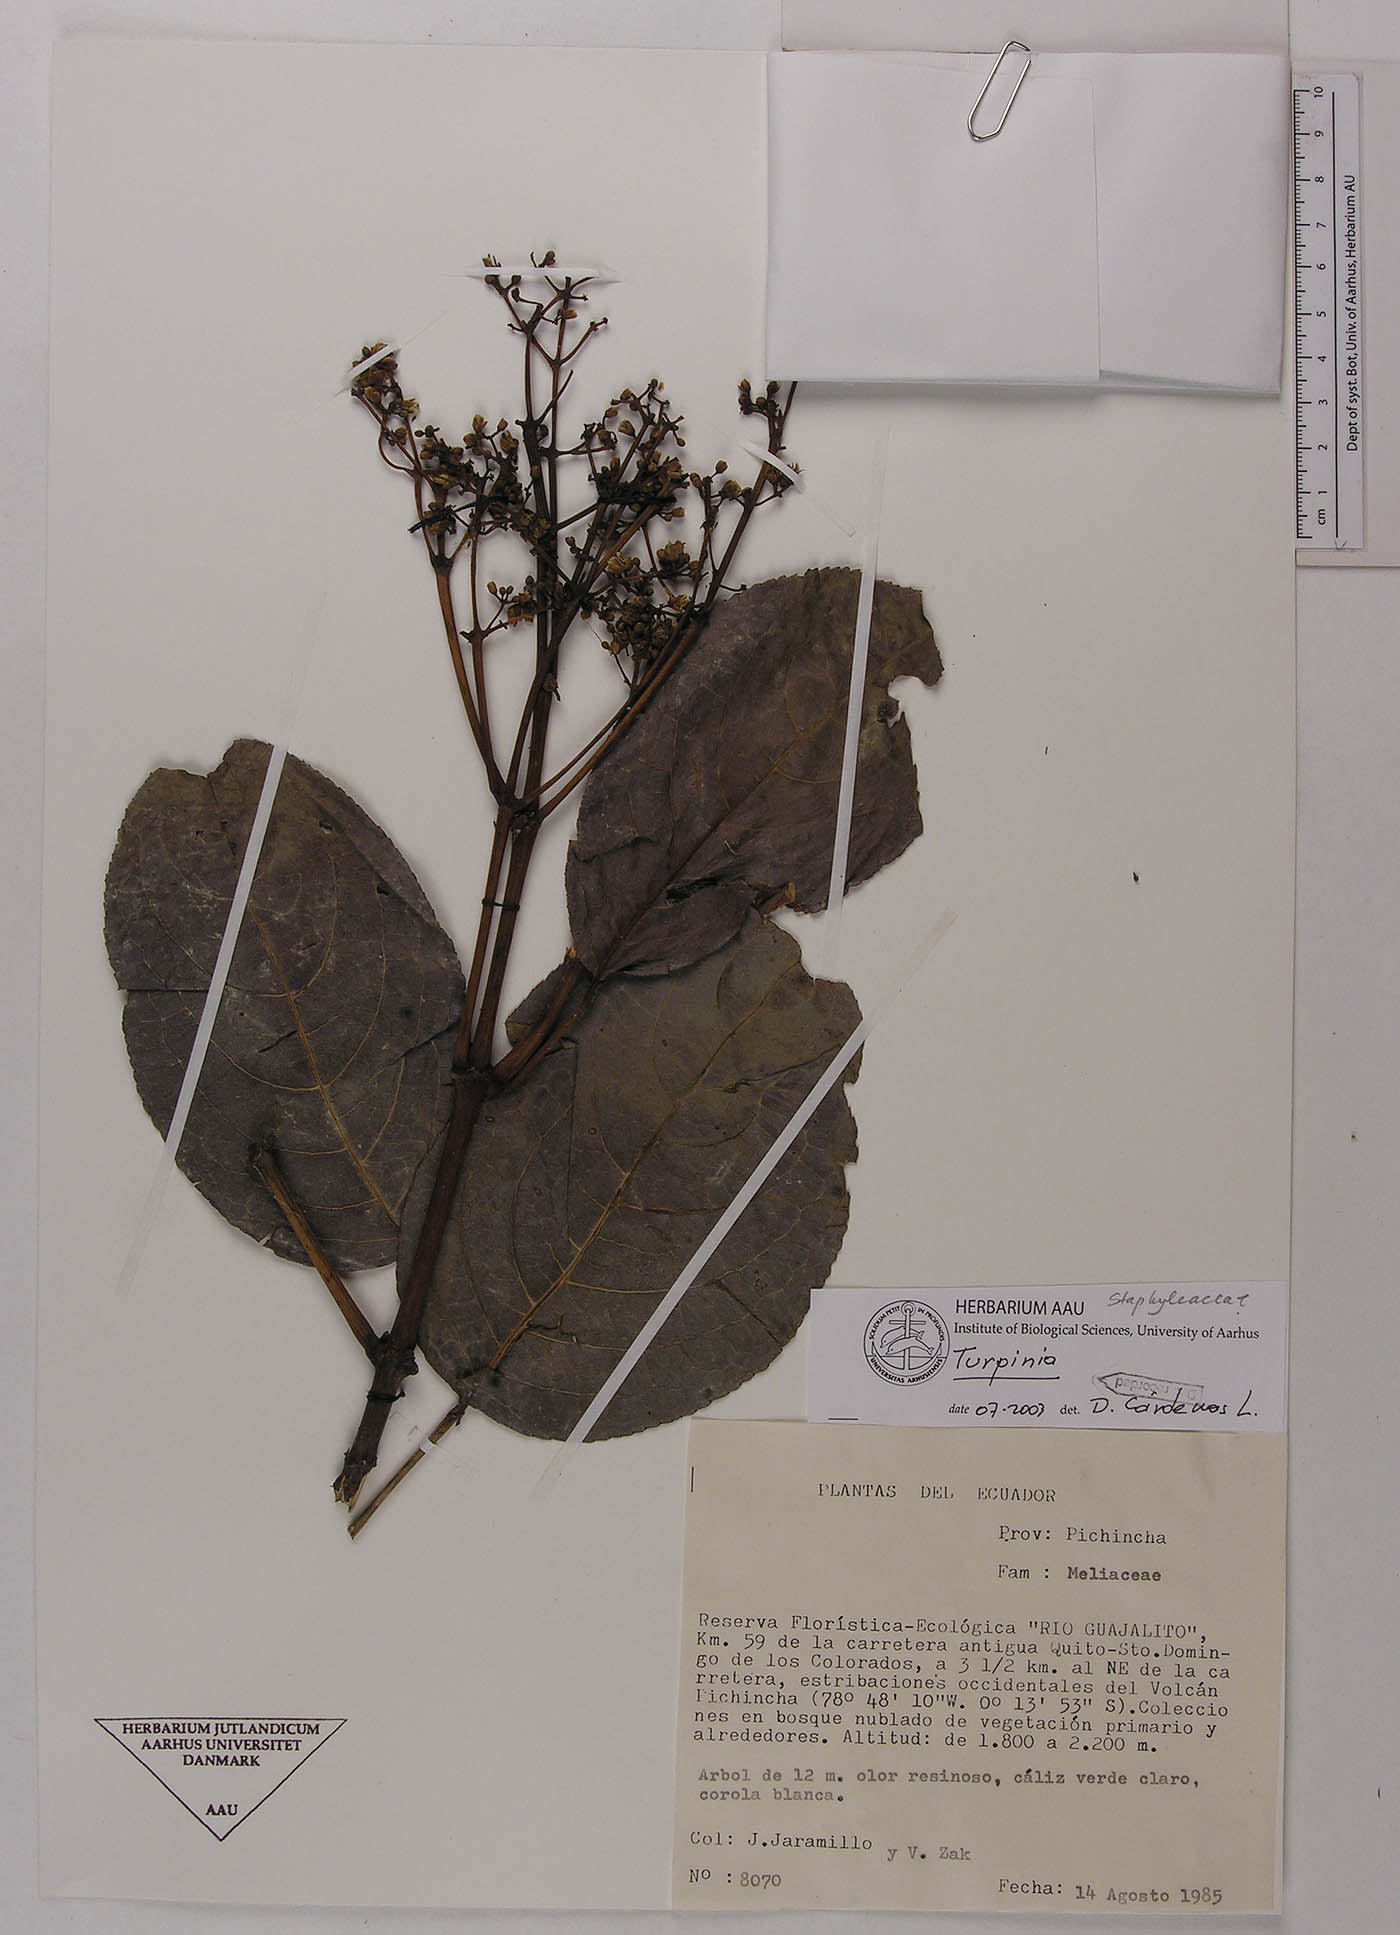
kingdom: Plantae
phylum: Tracheophyta
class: Magnoliopsida
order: Crossosomatales
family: Staphyleaceae
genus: Turpinia
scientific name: Turpinia megaphylla
